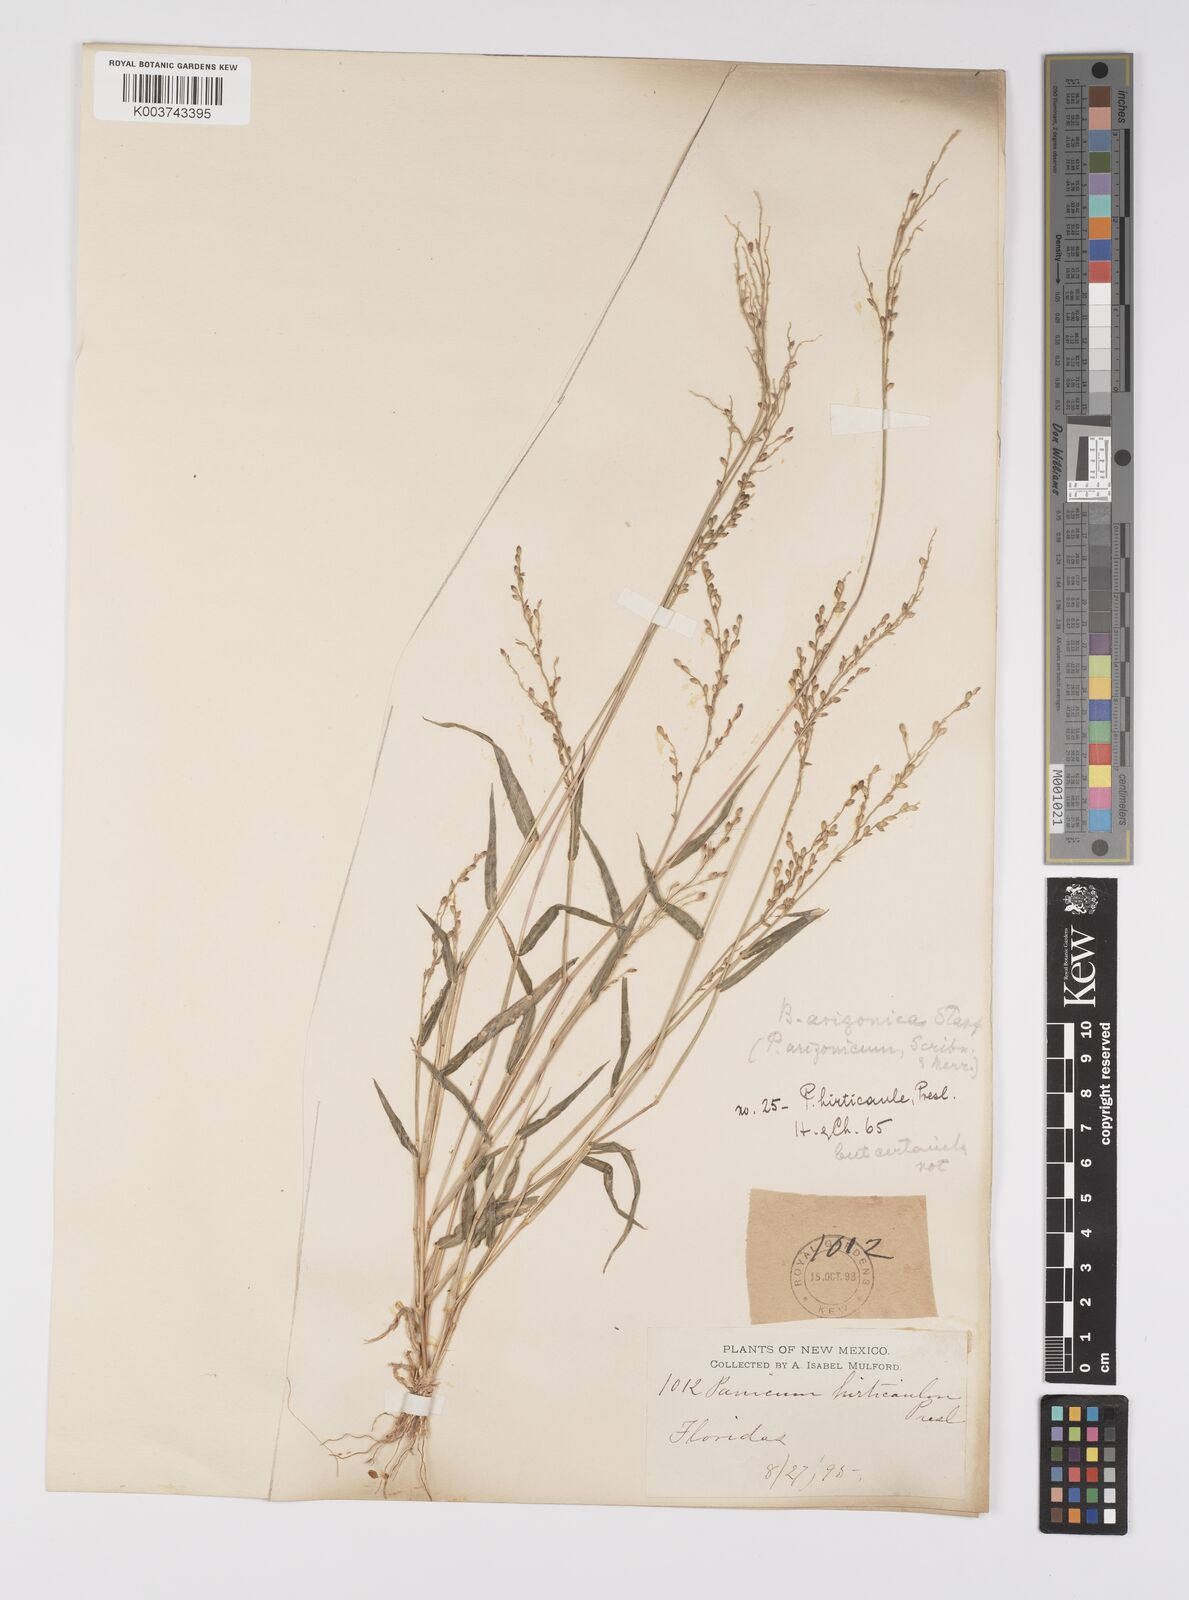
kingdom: Plantae
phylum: Tracheophyta
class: Liliopsida
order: Poales
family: Poaceae
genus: Urochloa
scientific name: Urochloa arizonica
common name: Arizona signal grass
